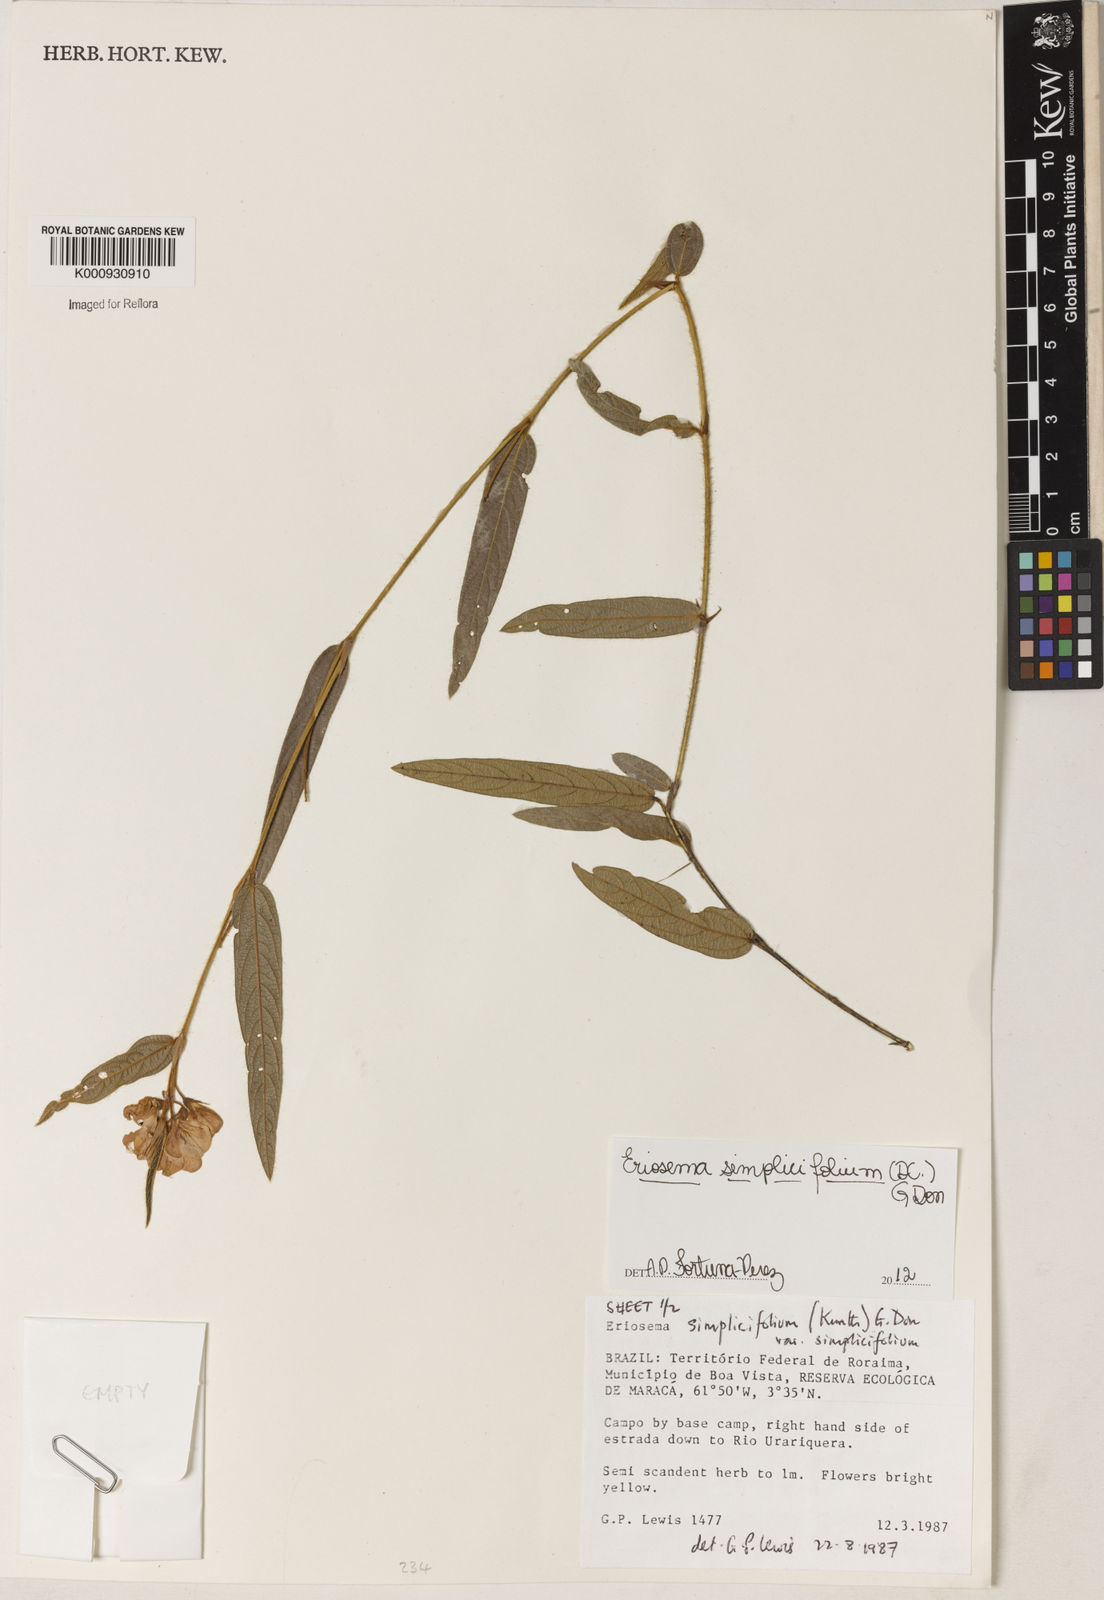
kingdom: Plantae
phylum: Tracheophyta
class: Magnoliopsida
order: Fabales
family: Fabaceae
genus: Eriosema
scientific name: Eriosema simplicifolium
